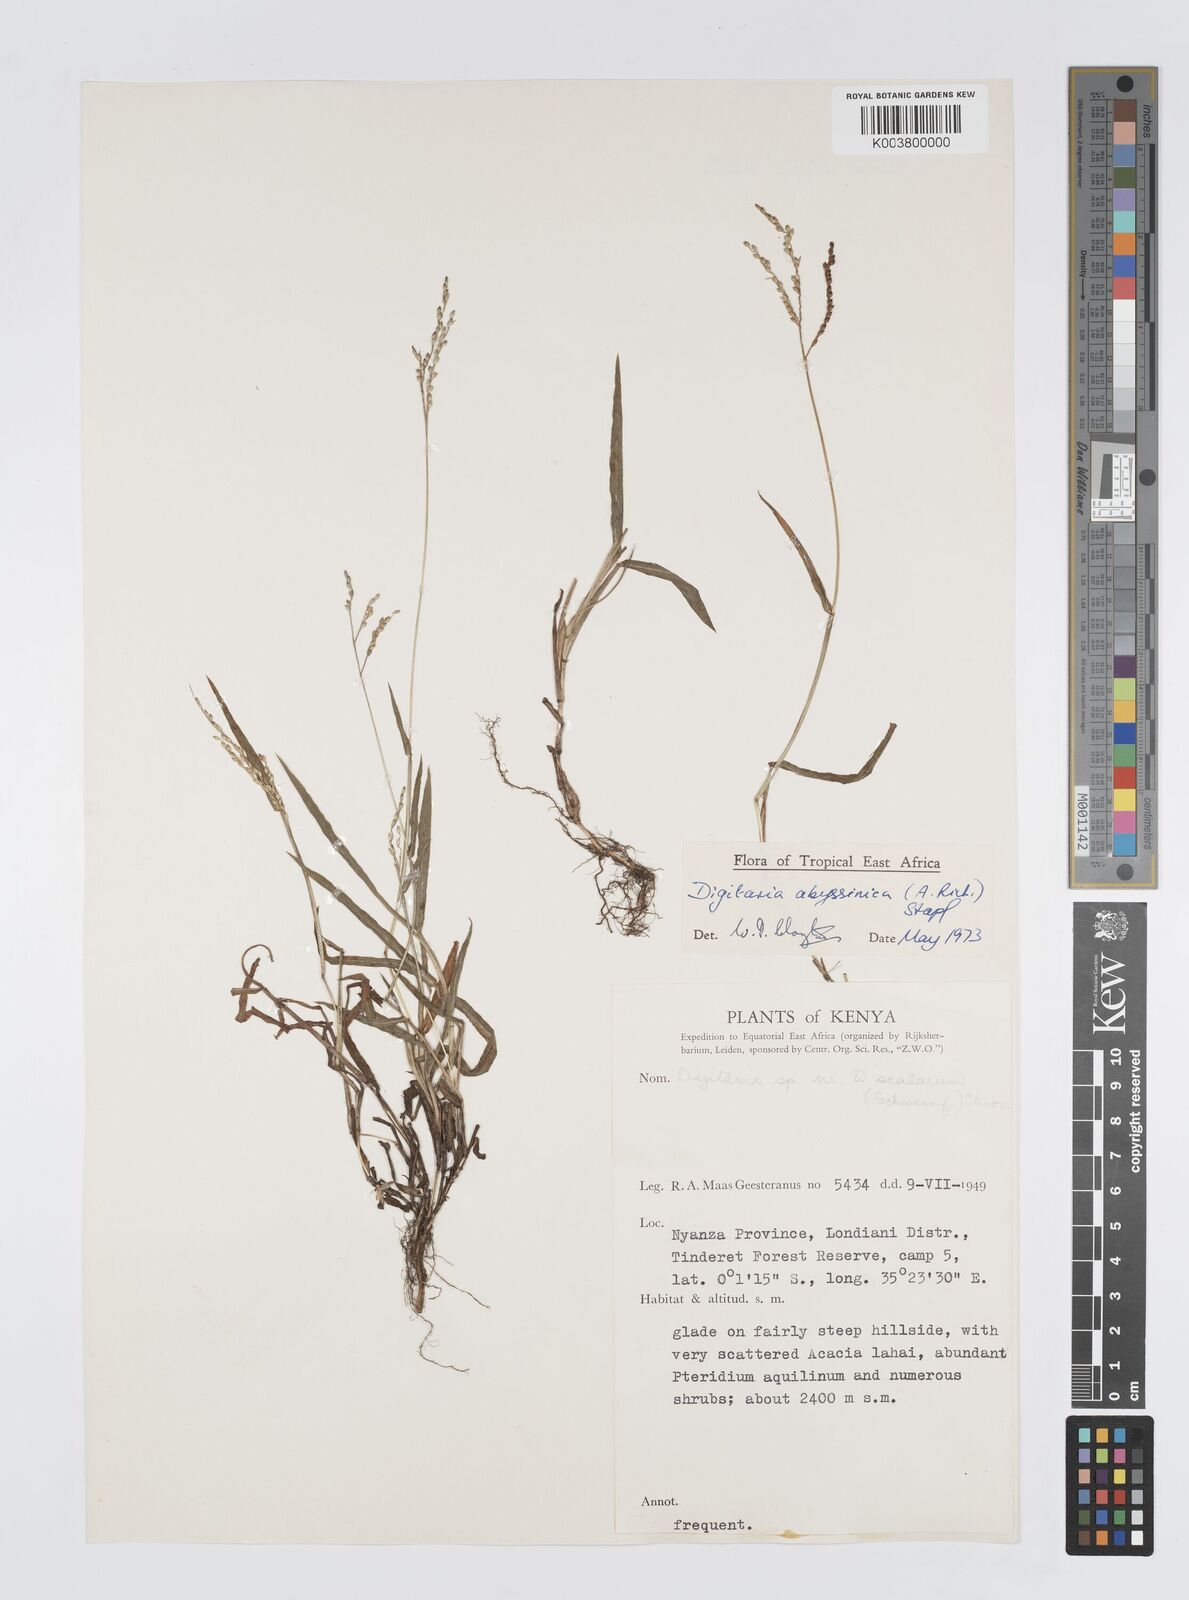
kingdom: Plantae
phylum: Tracheophyta
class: Liliopsida
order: Poales
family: Poaceae
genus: Digitaria
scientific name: Digitaria abyssinica
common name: African couchgrass
